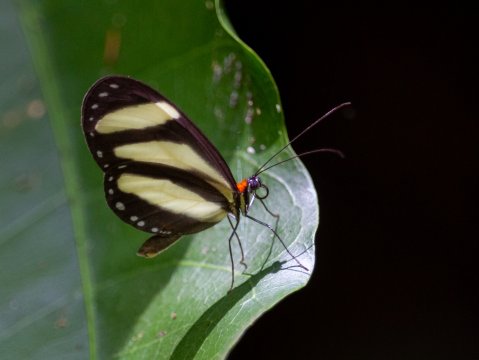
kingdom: Animalia
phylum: Arthropoda
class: Insecta
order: Lepidoptera
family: Nymphalidae
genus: Aeria
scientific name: Aeria eurimedia
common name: Banded Tigerwing
